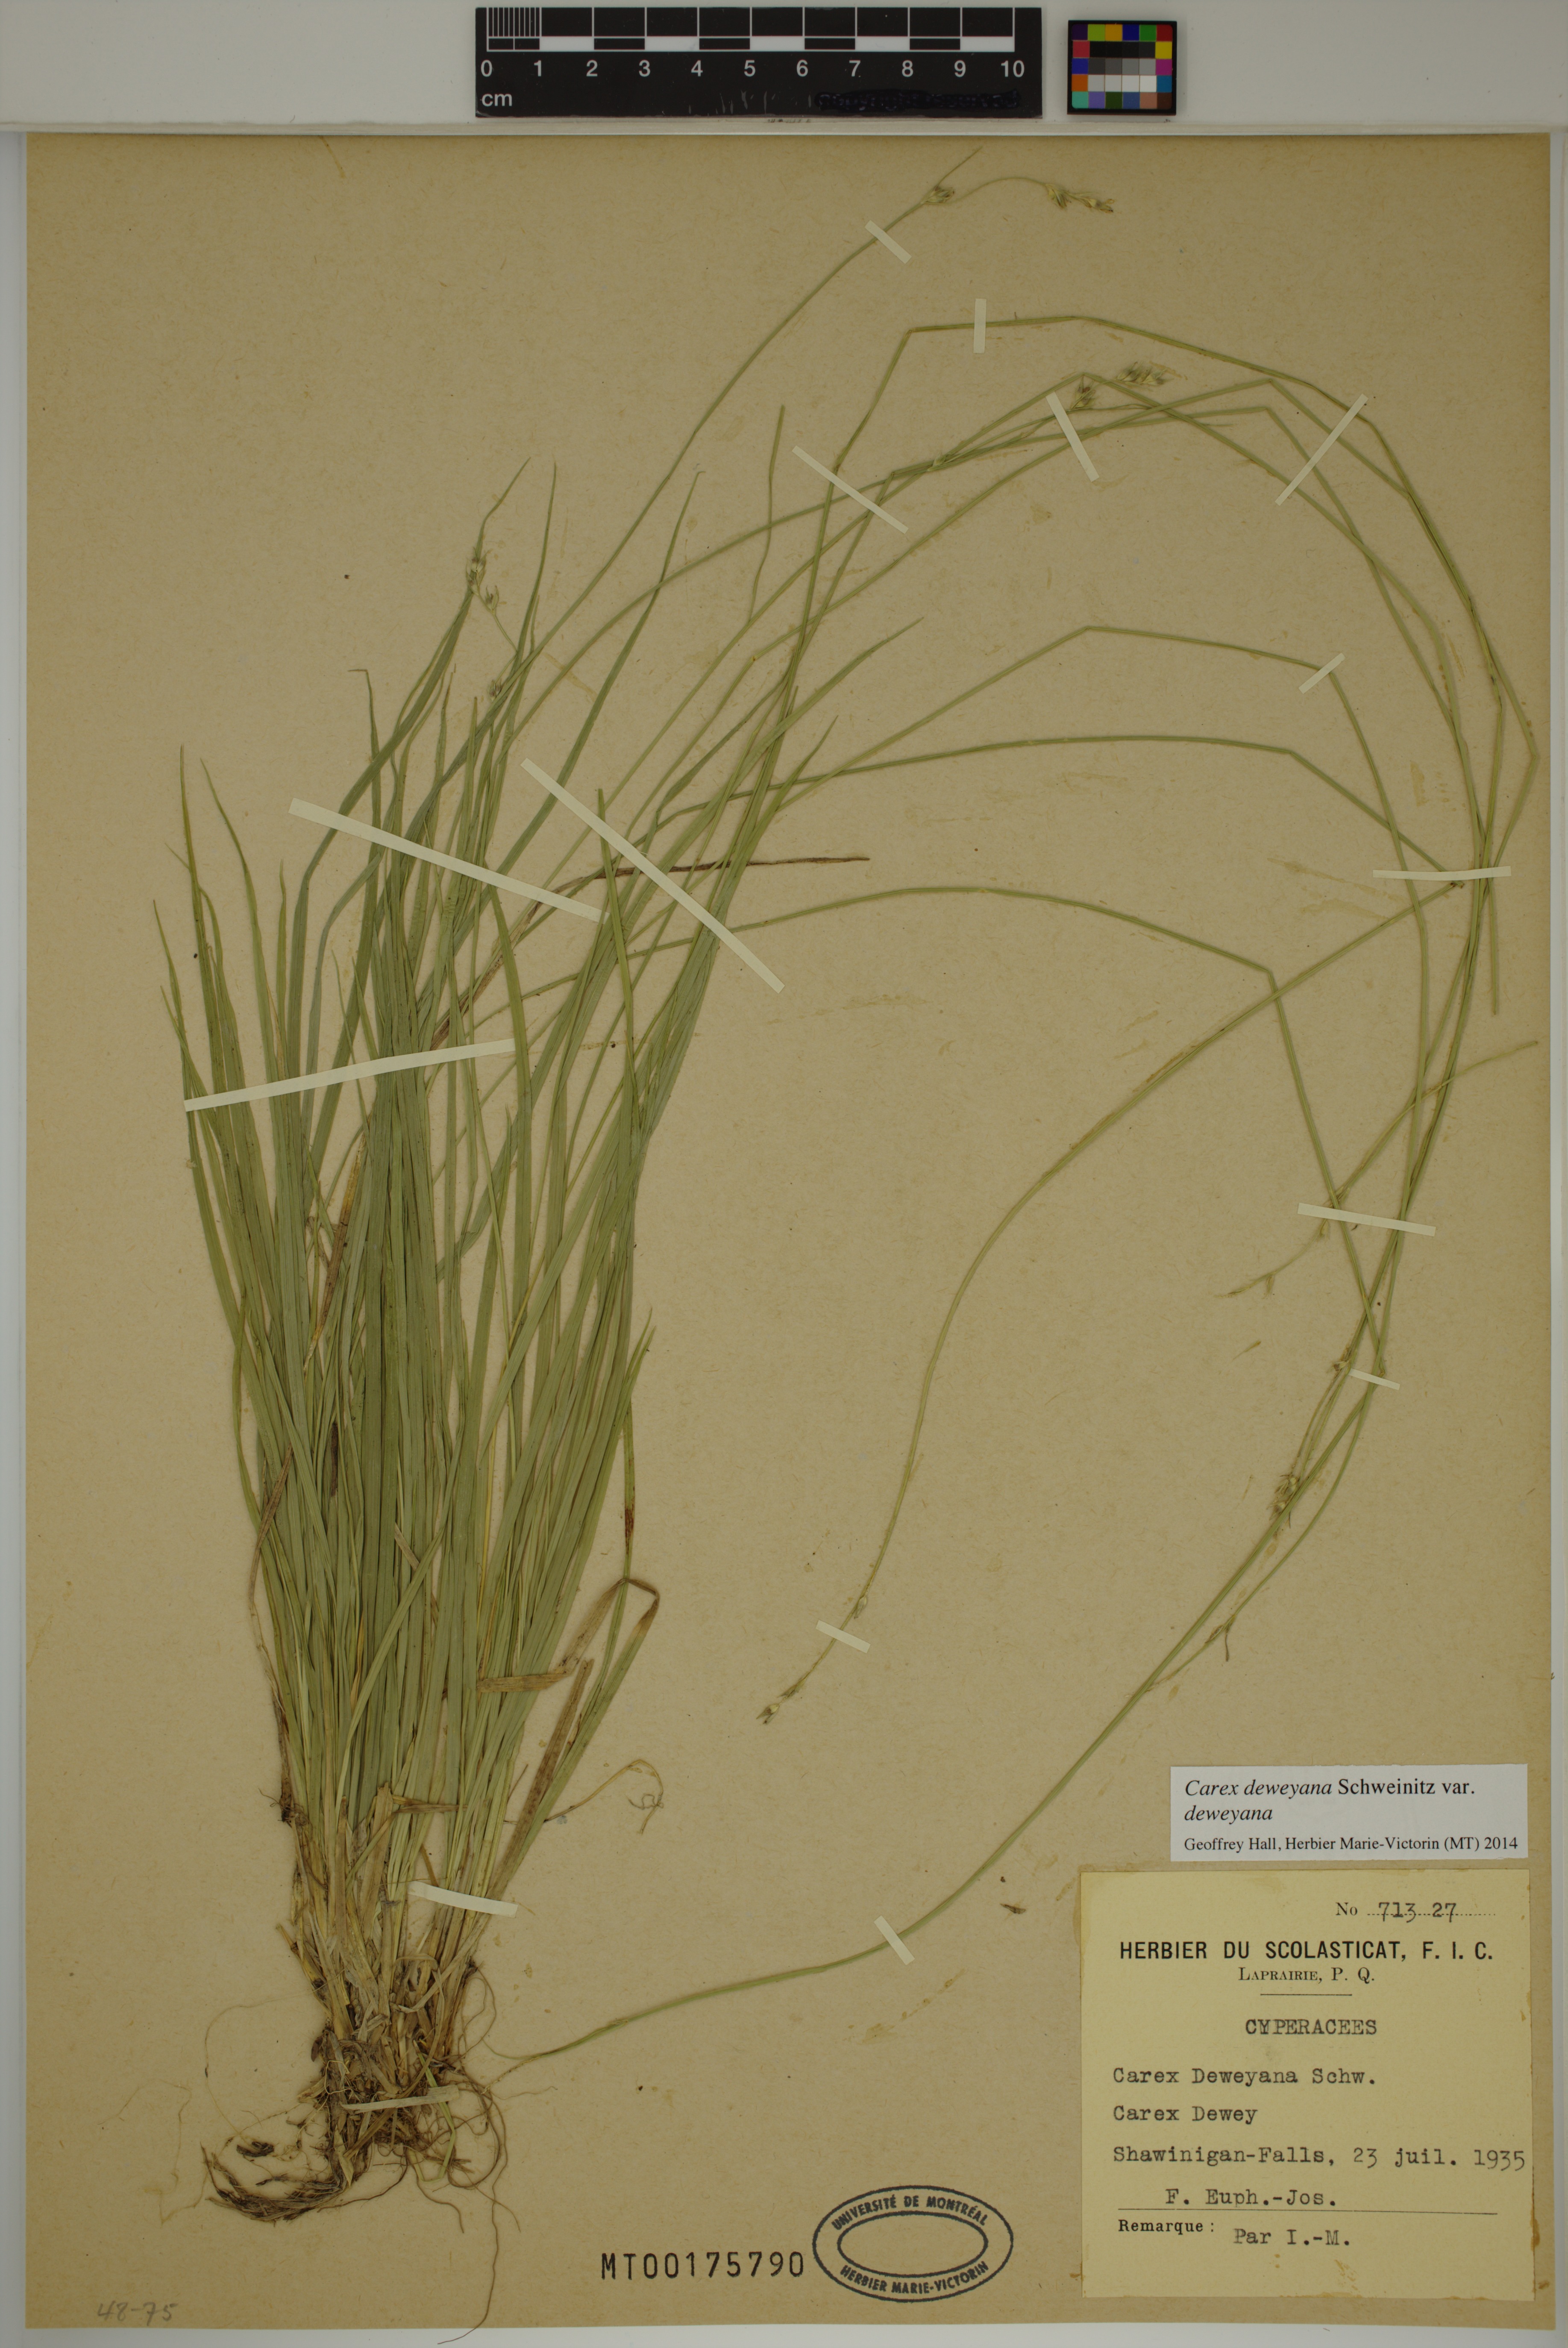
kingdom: Plantae
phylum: Tracheophyta
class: Liliopsida
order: Poales
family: Cyperaceae
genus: Carex
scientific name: Carex deweyana
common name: Dewey's sedge
